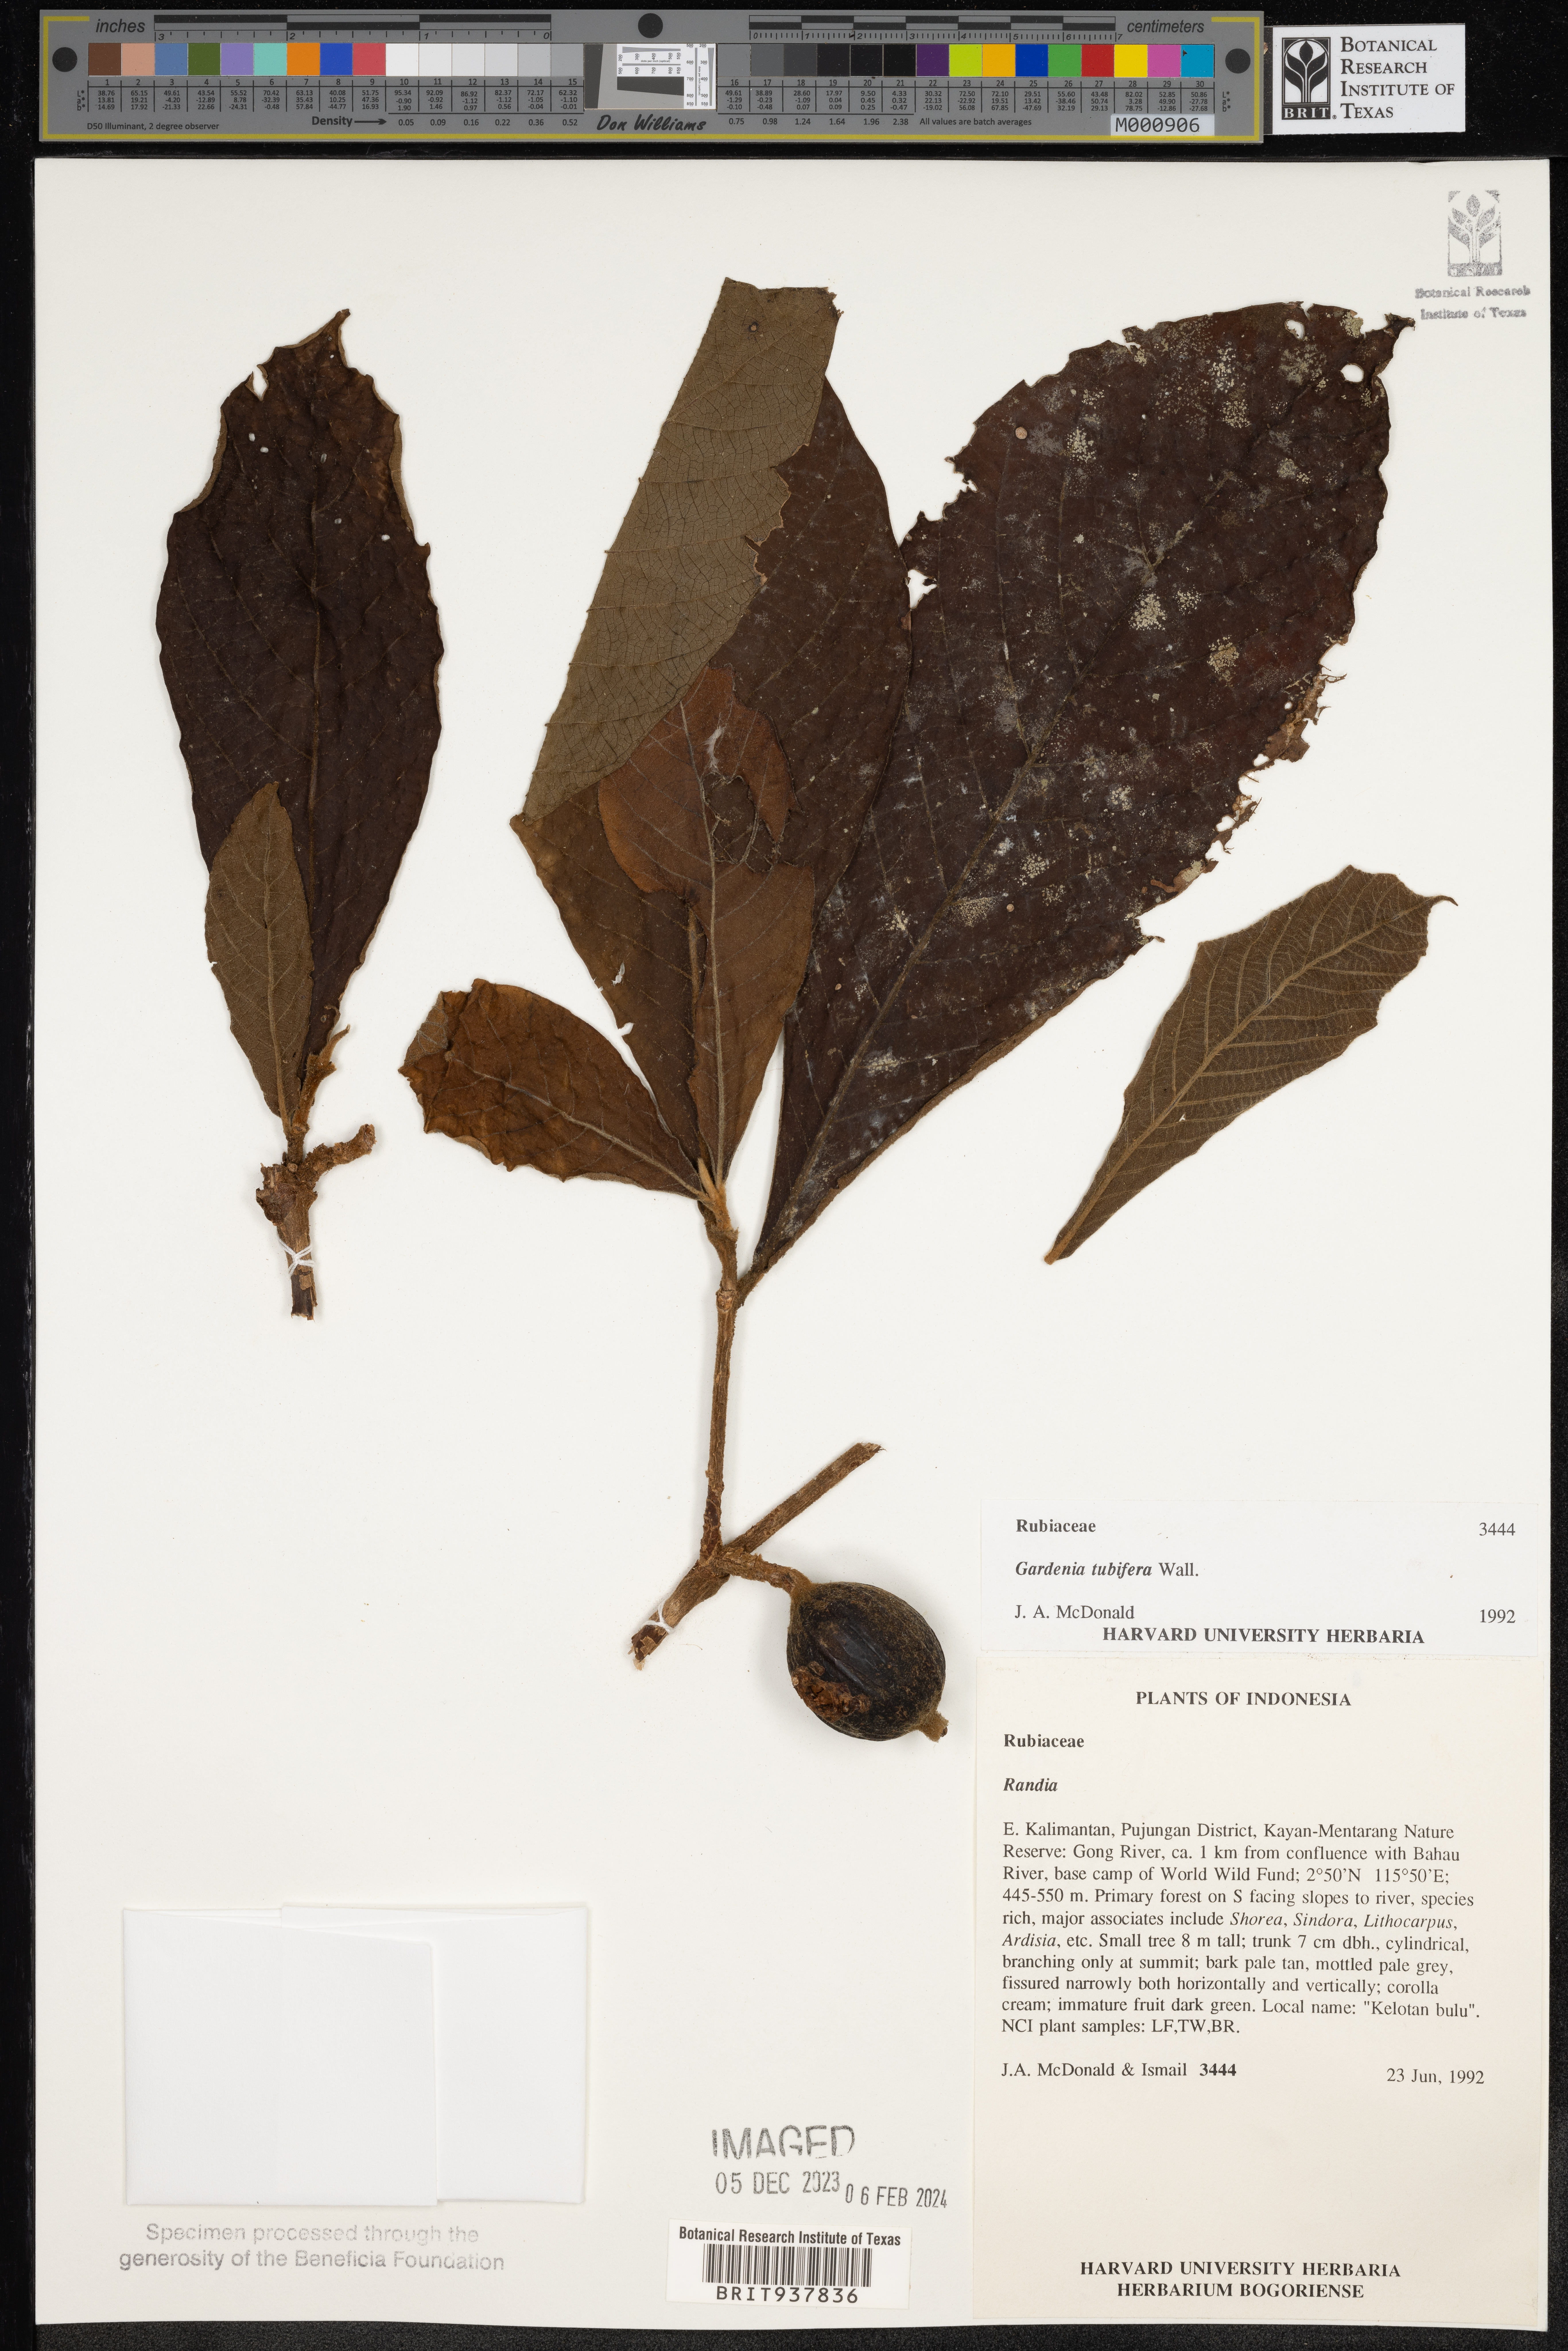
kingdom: Plantae
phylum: Tracheophyta
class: Magnoliopsida
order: Gentianales
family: Rubiaceae
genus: Gardenia
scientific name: Gardenia
